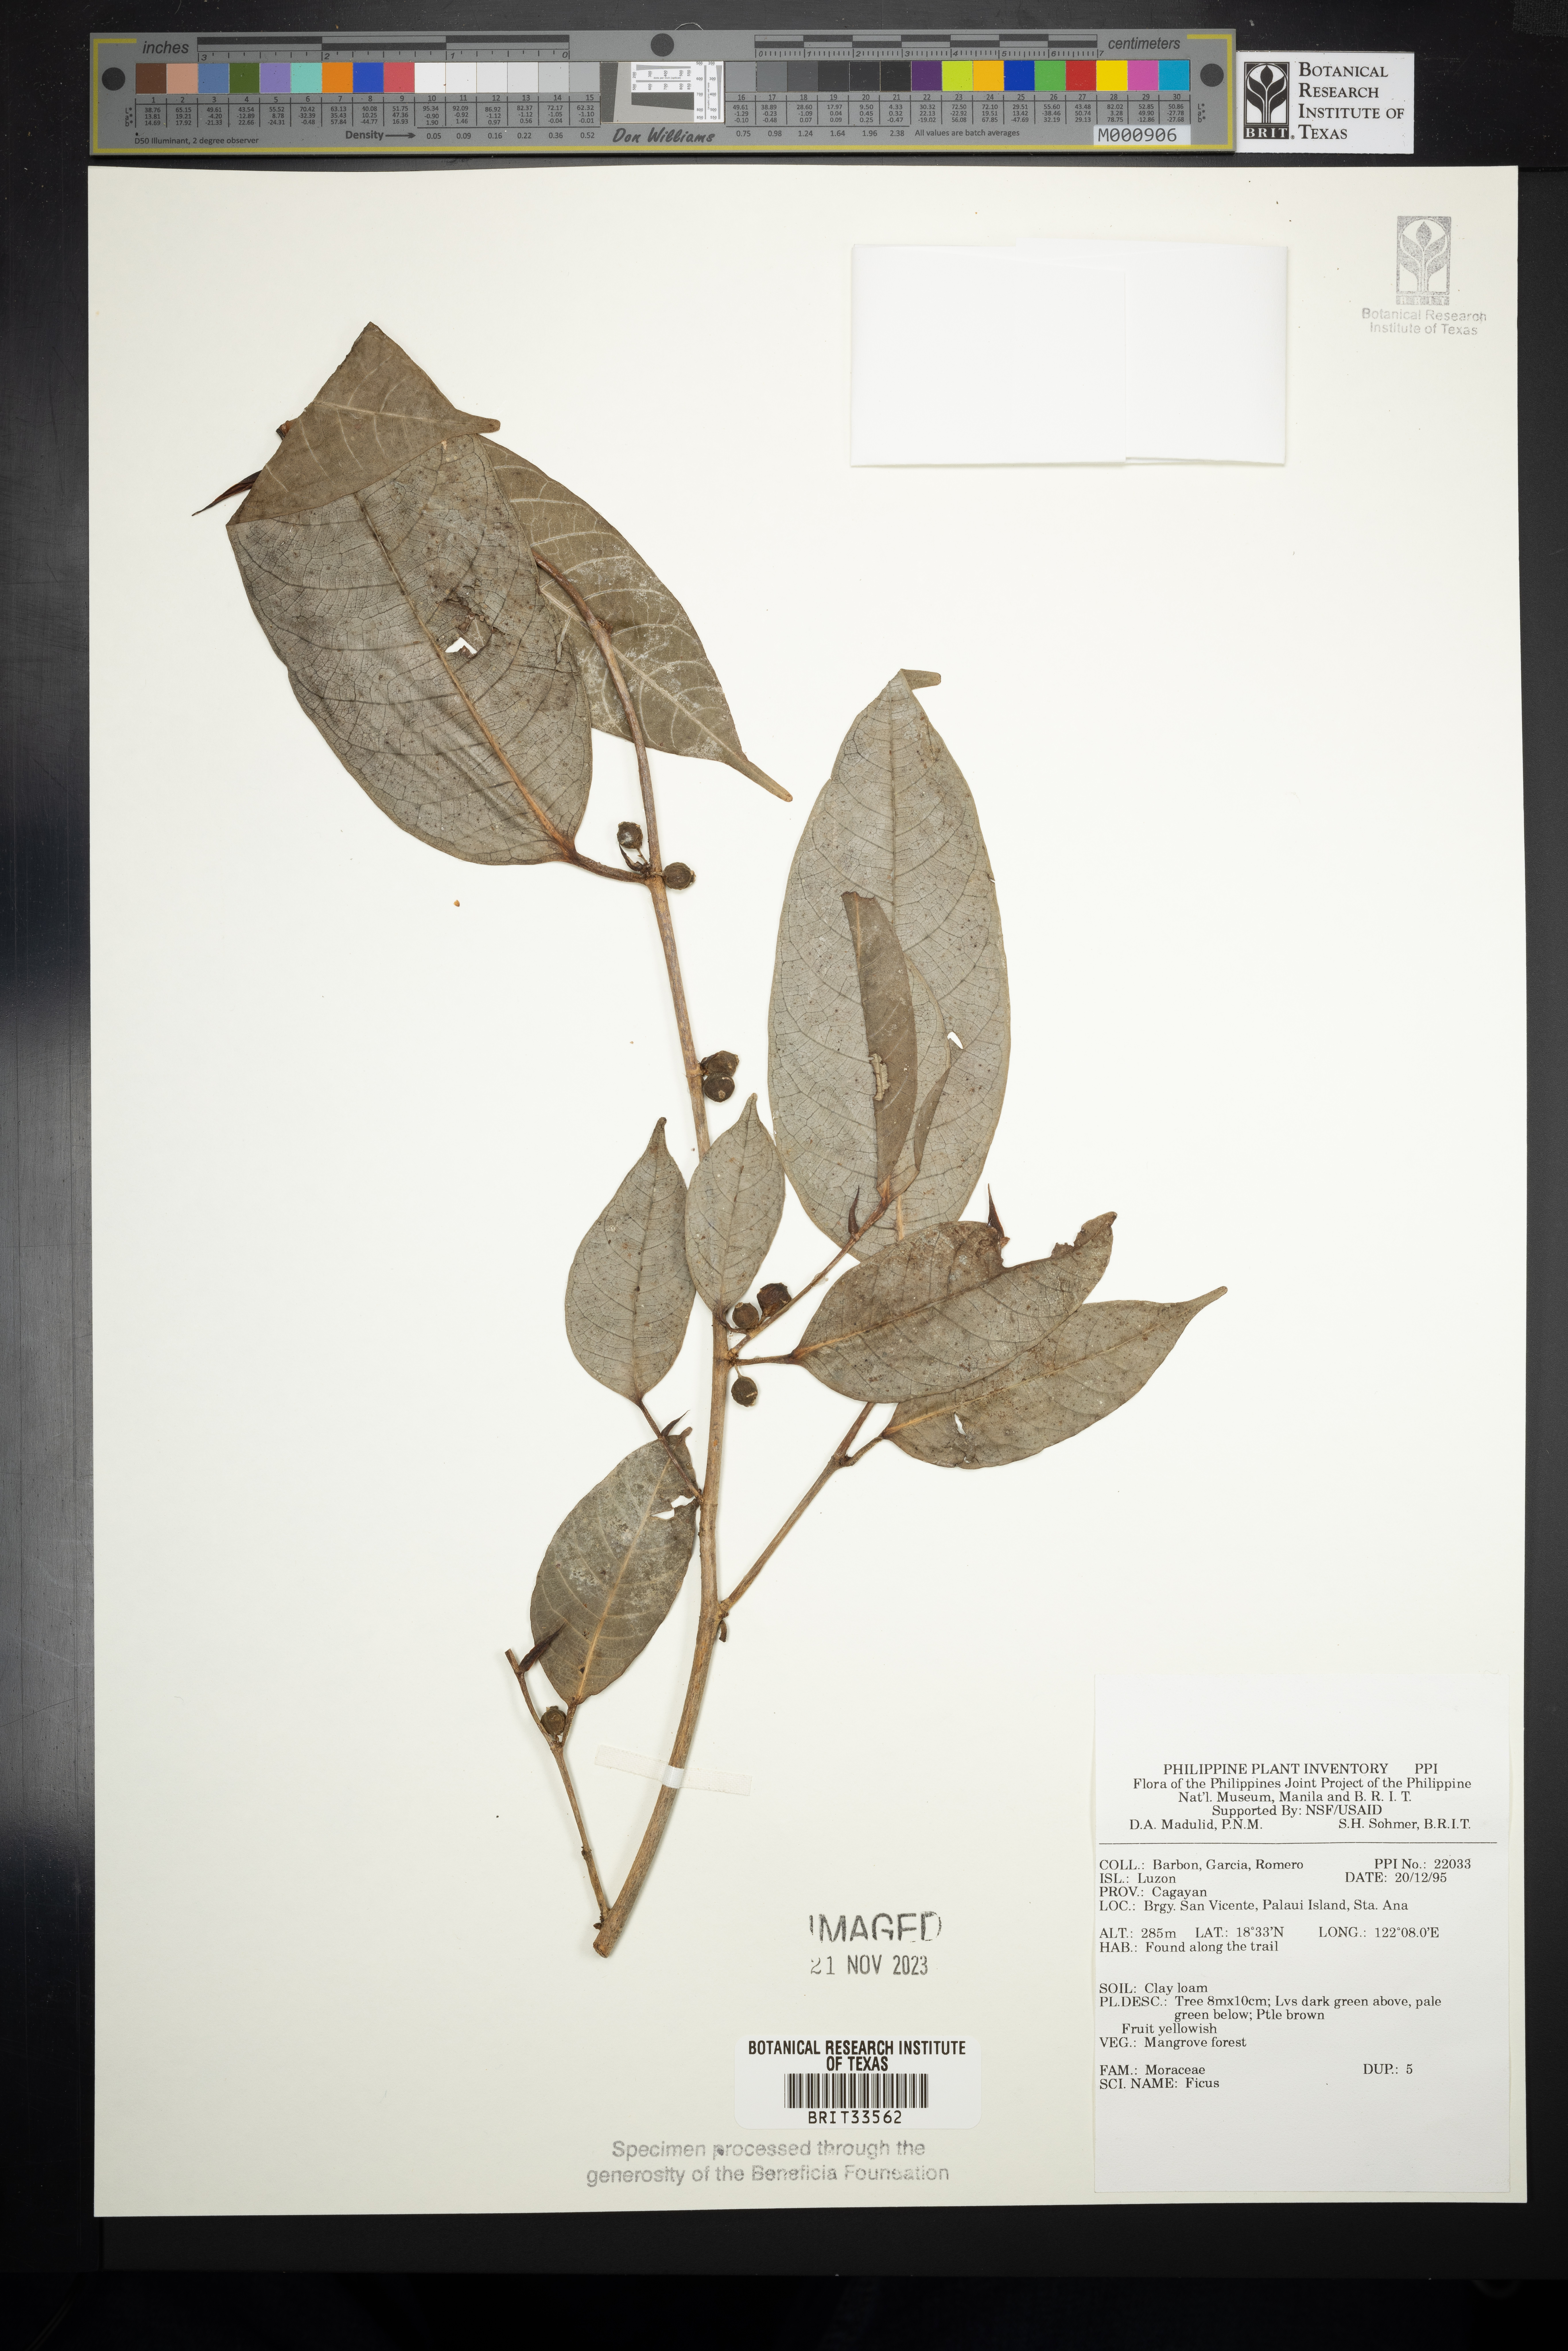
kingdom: Plantae
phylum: Tracheophyta
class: Magnoliopsida
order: Rosales
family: Moraceae
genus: Ficus
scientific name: Ficus
